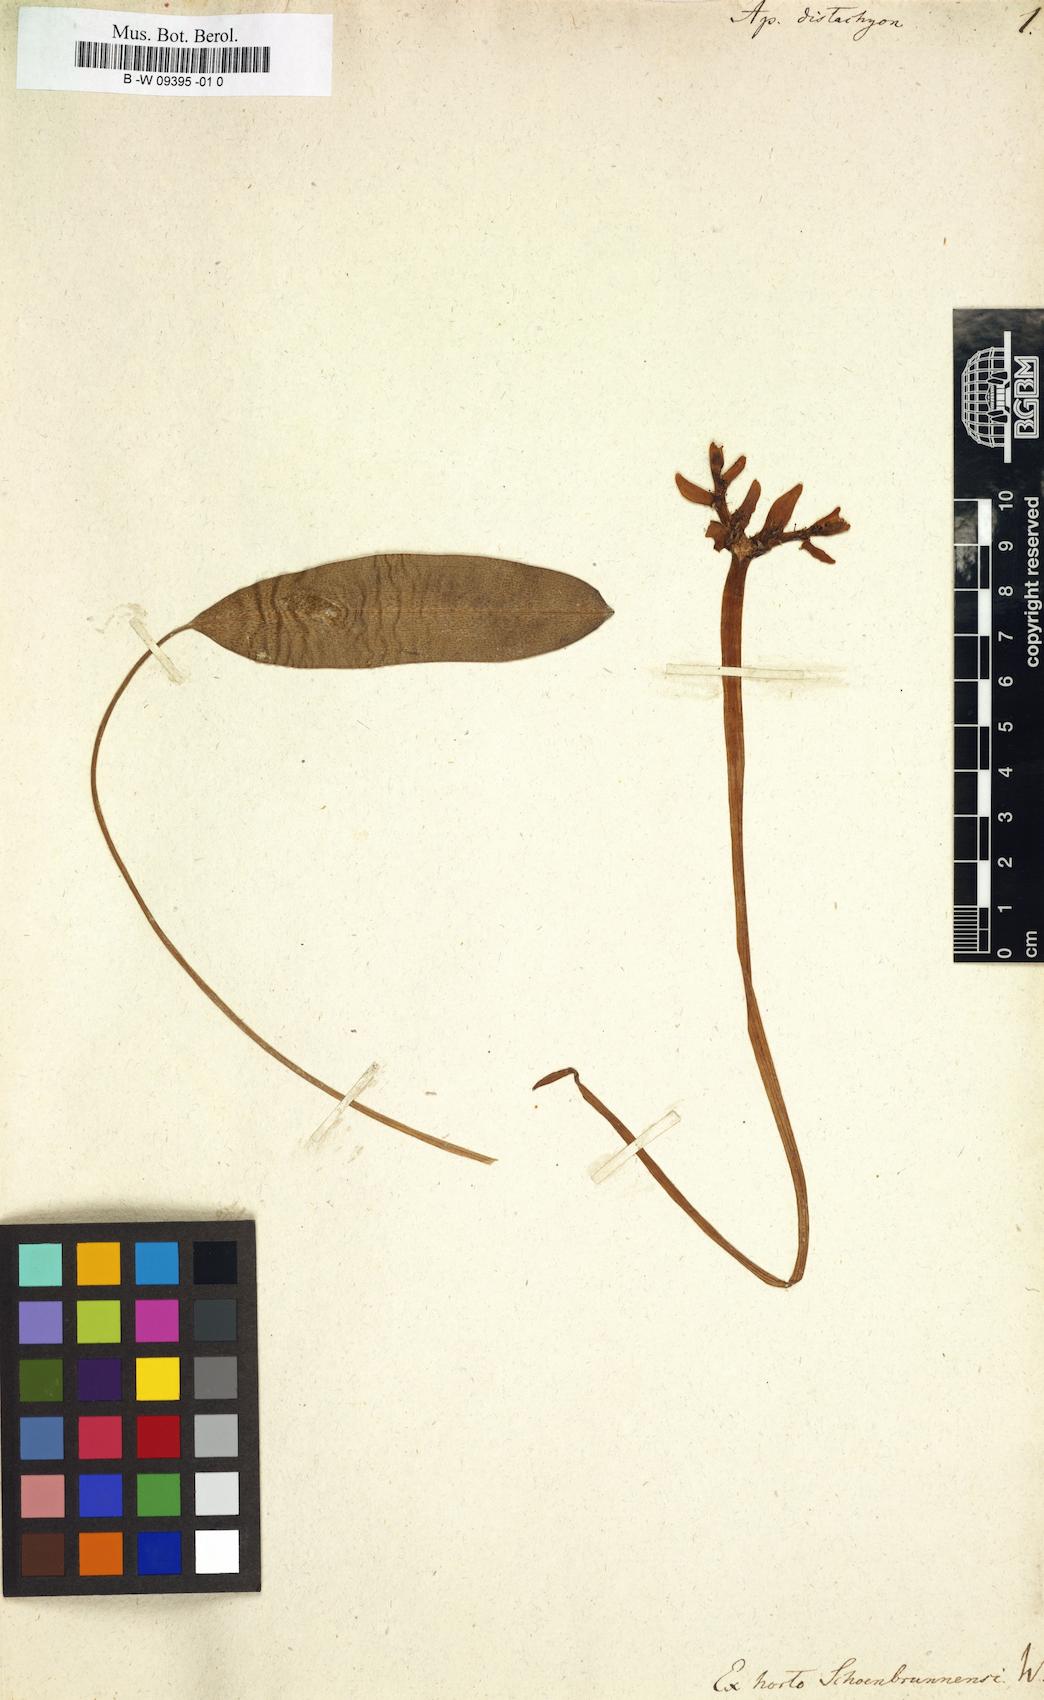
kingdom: Plantae
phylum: Tracheophyta
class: Liliopsida
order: Alismatales
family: Aponogetonaceae
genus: Aponogeton
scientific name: Aponogeton distachyos
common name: Cape-pondweed
